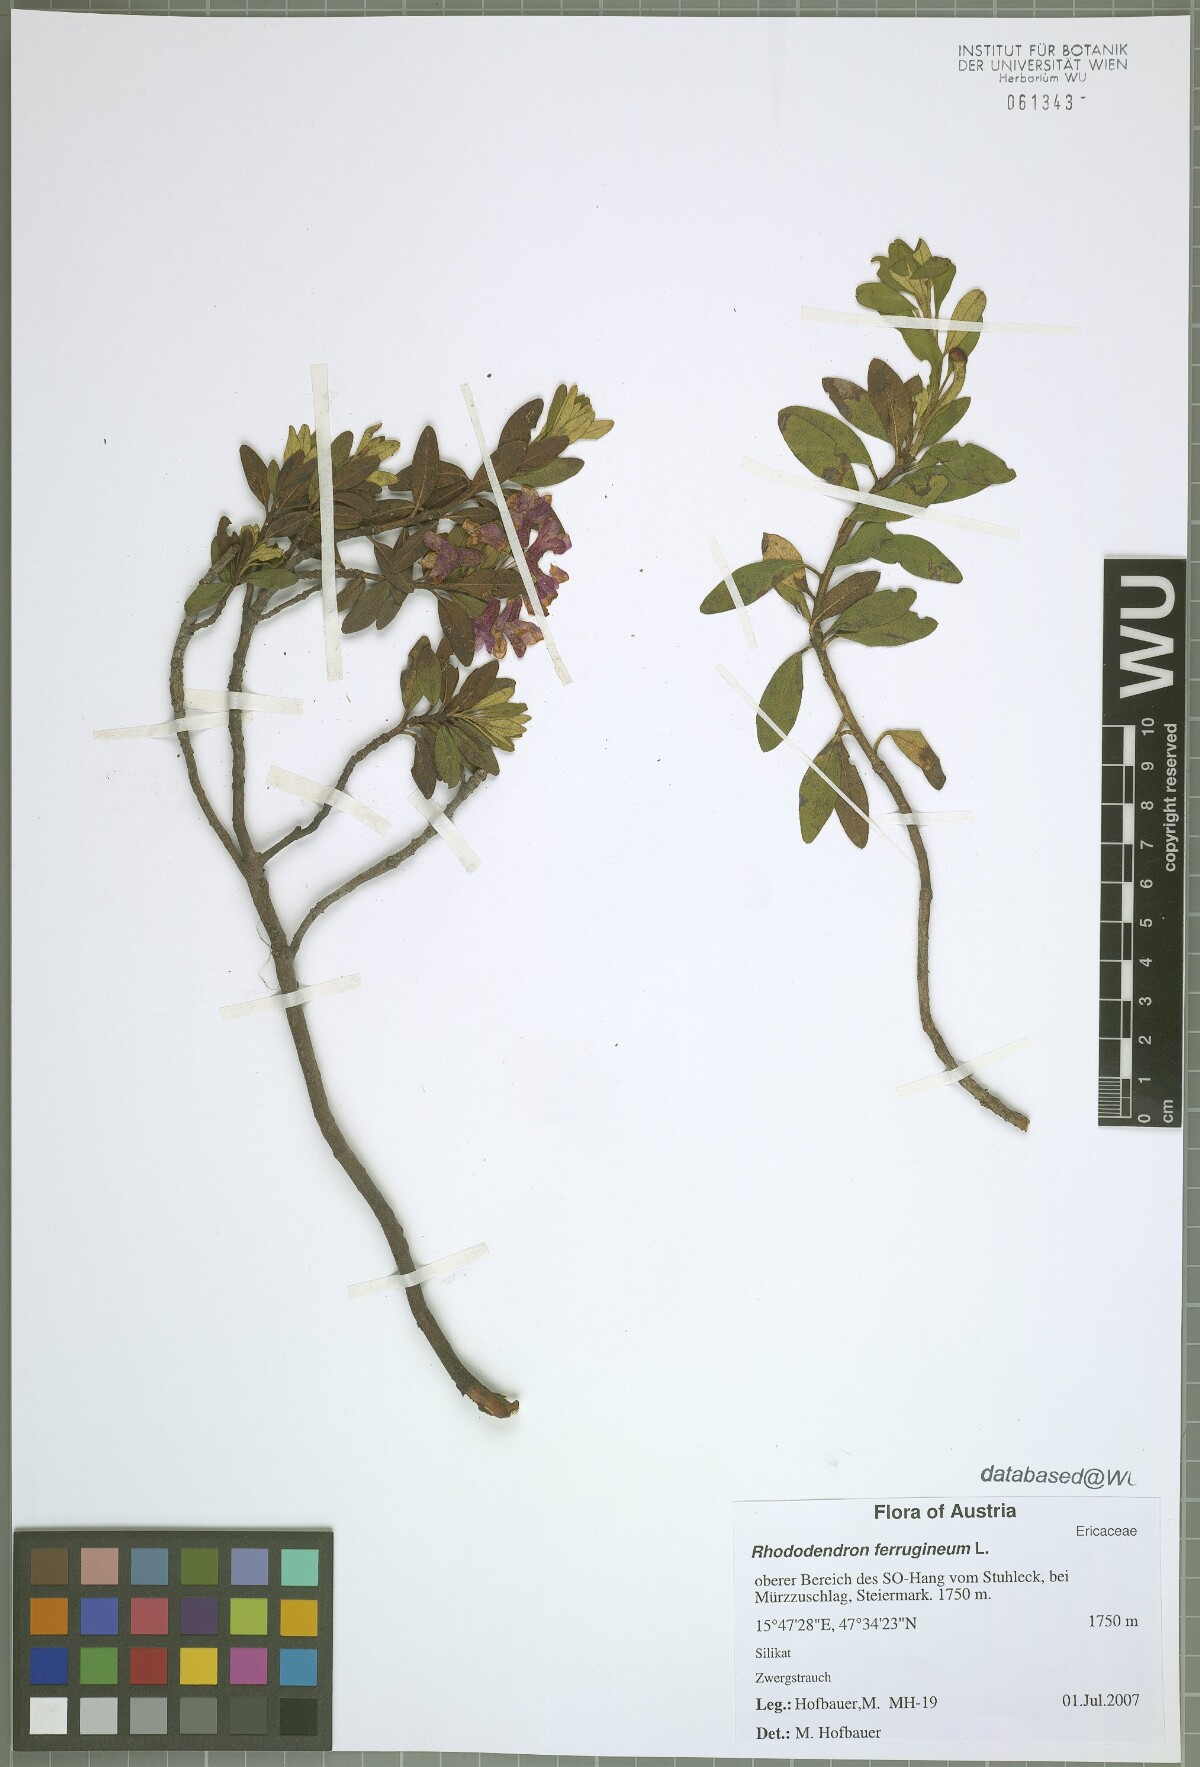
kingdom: Plantae
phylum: Tracheophyta
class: Magnoliopsida
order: Ericales
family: Ericaceae
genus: Rhododendron
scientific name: Rhododendron ferrugineum
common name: Alpenrose
